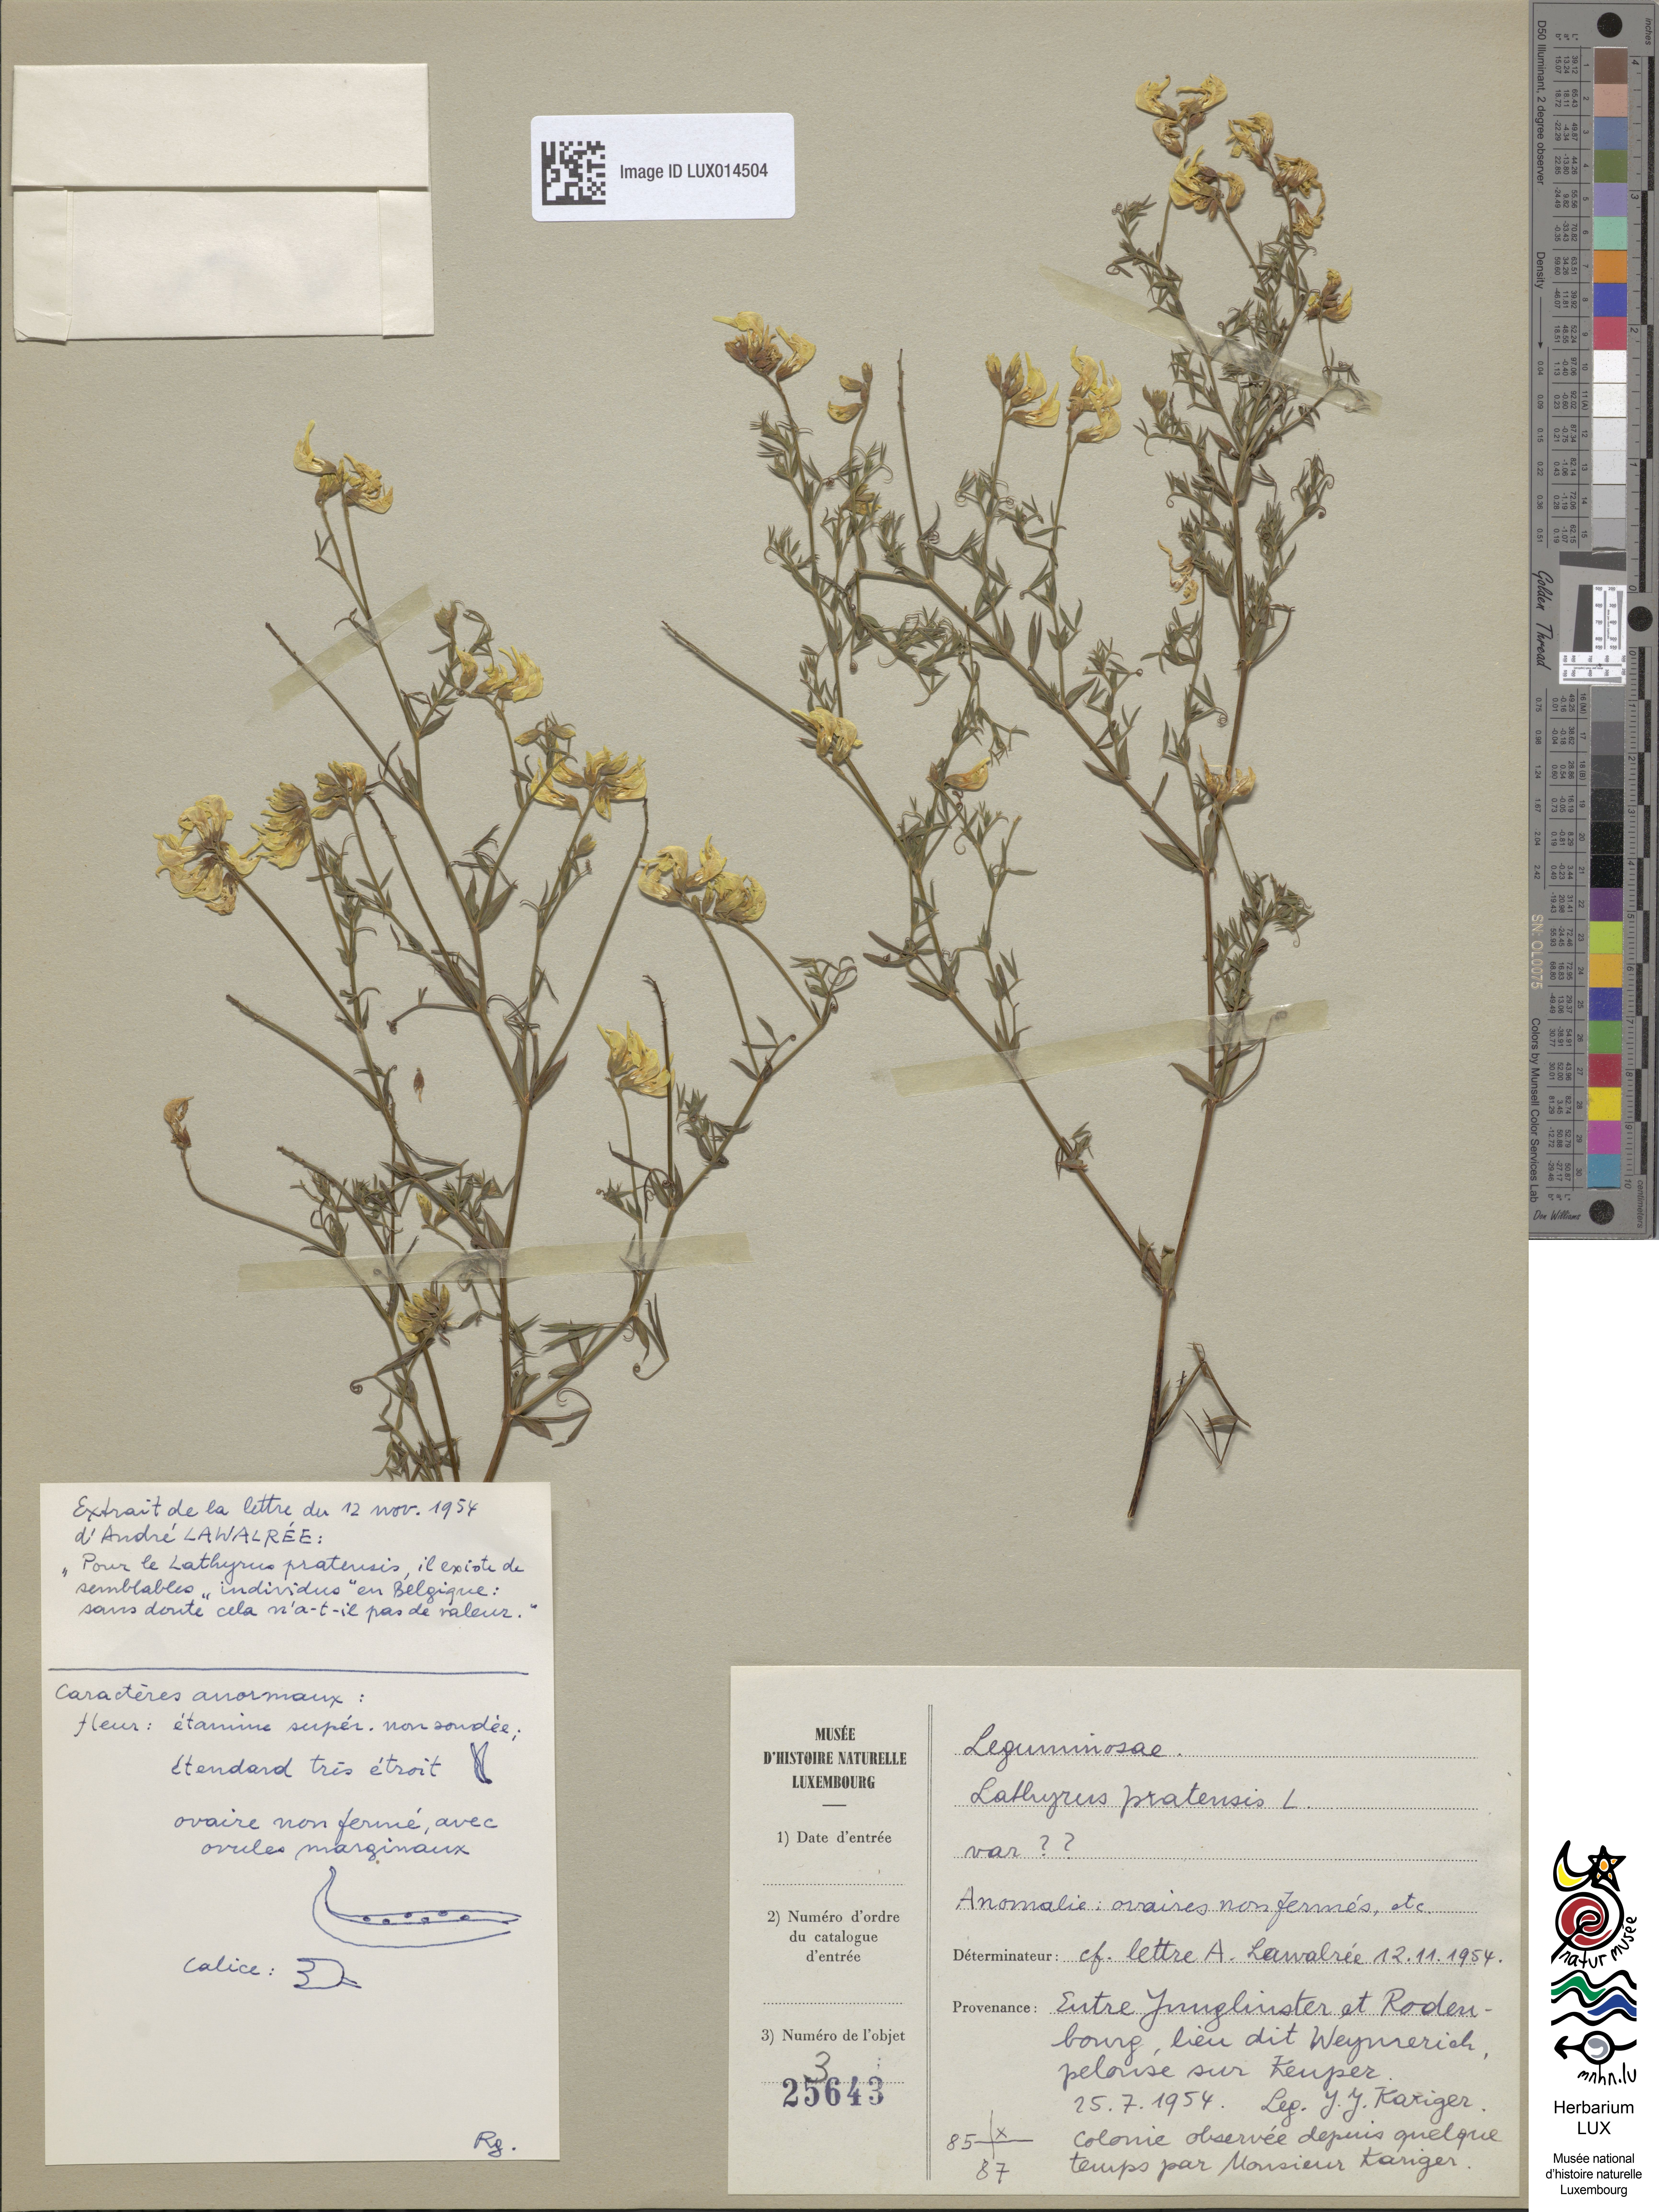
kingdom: Plantae
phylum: Tracheophyta
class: Magnoliopsida
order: Fabales
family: Fabaceae
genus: Lathyrus
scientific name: Lathyrus pratensis
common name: Meadow vetchling
